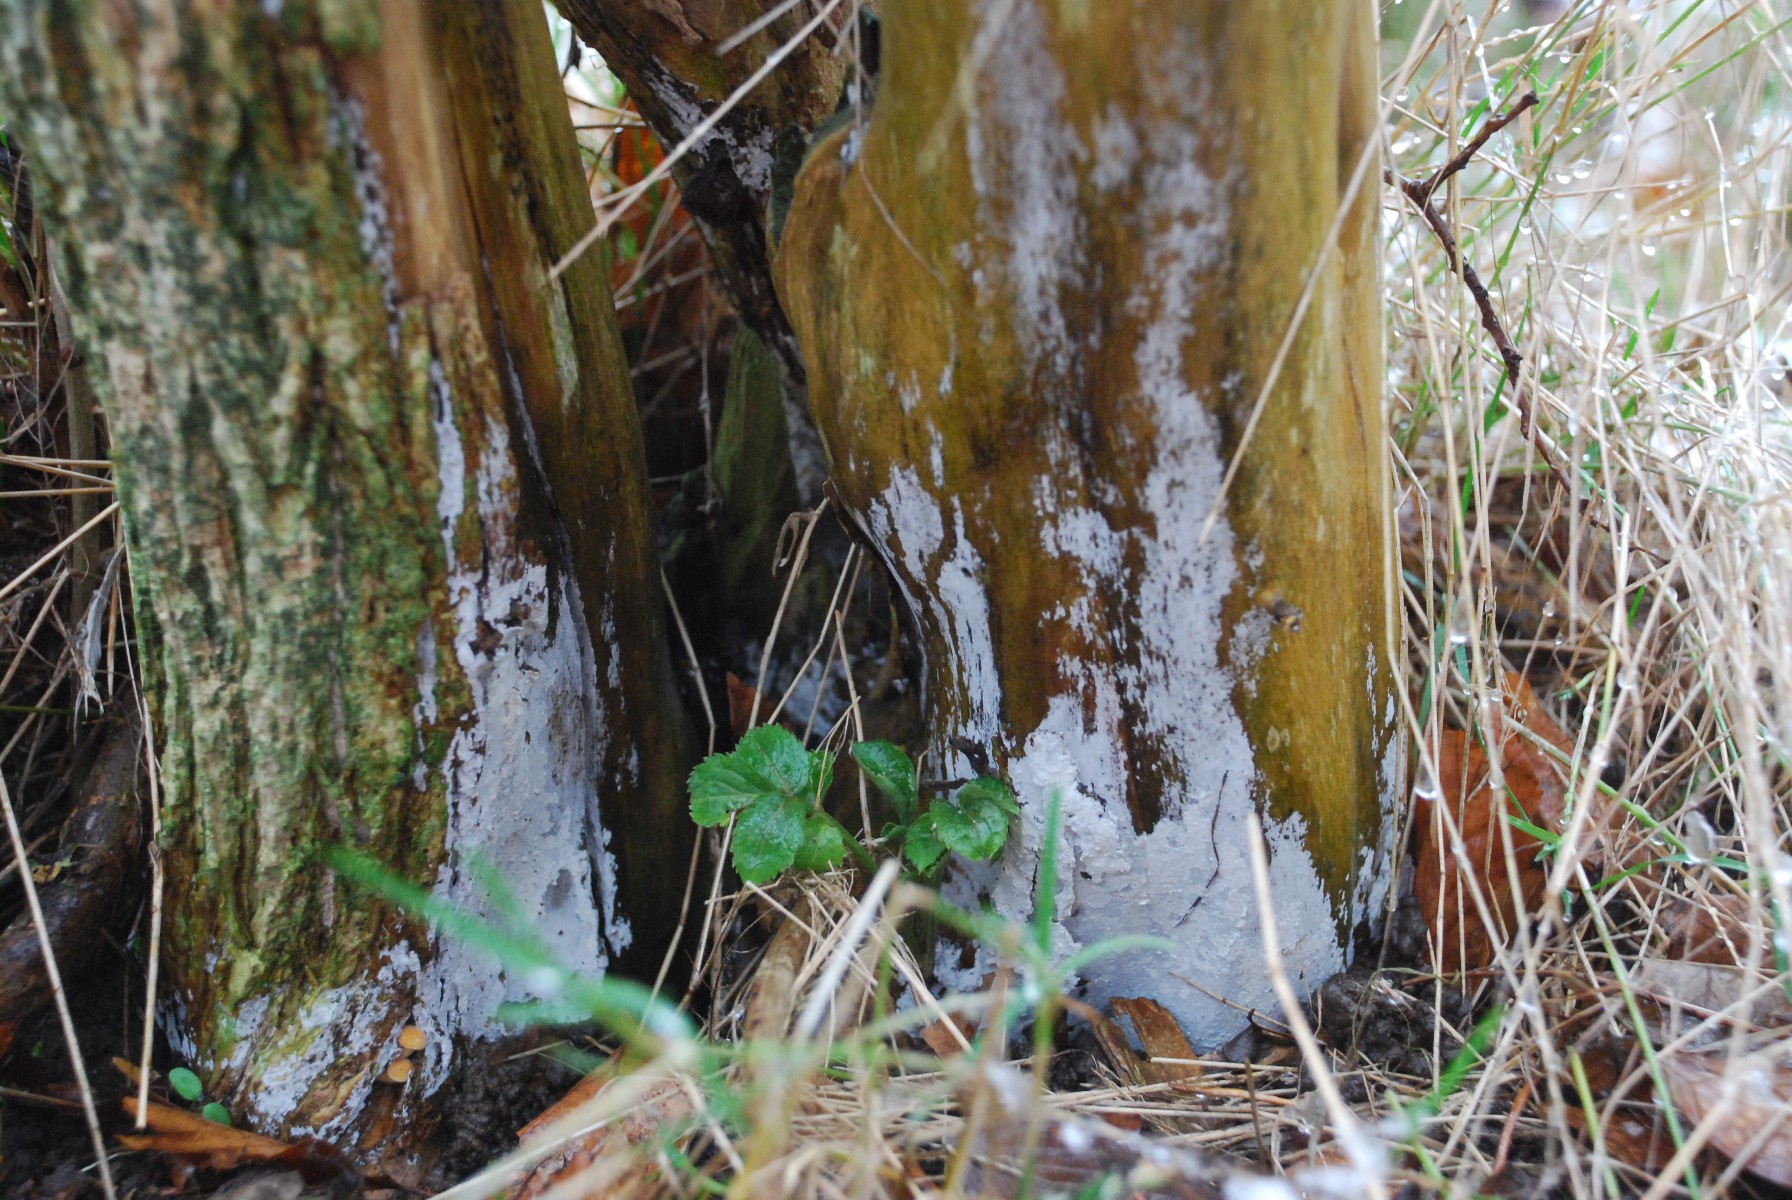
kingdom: Fungi
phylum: Basidiomycota
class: Agaricomycetes
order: Corticiales
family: Corticiaceae
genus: Lyomyces
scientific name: Lyomyces sambuci
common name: almindelig hyldehinde
